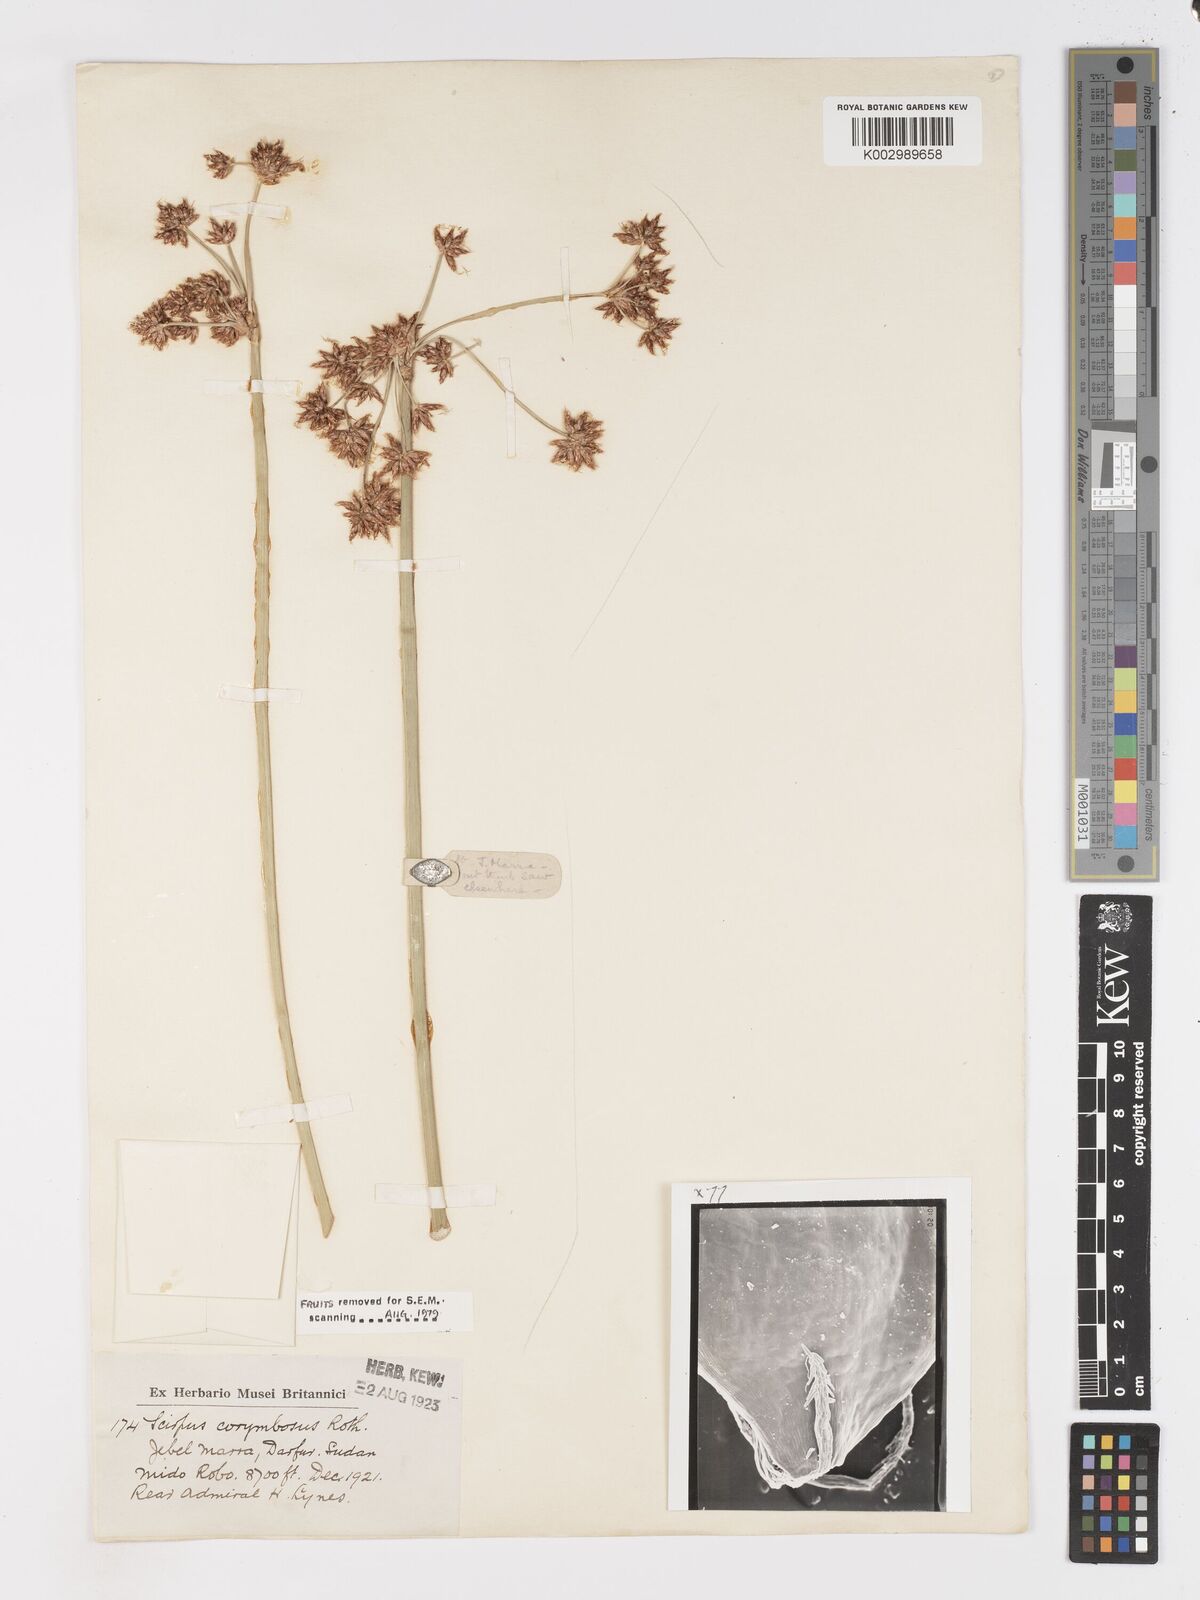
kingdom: Plantae
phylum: Tracheophyta
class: Liliopsida
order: Poales
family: Cyperaceae
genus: Schoenoplectiella
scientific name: Schoenoplectiella brachyceras
